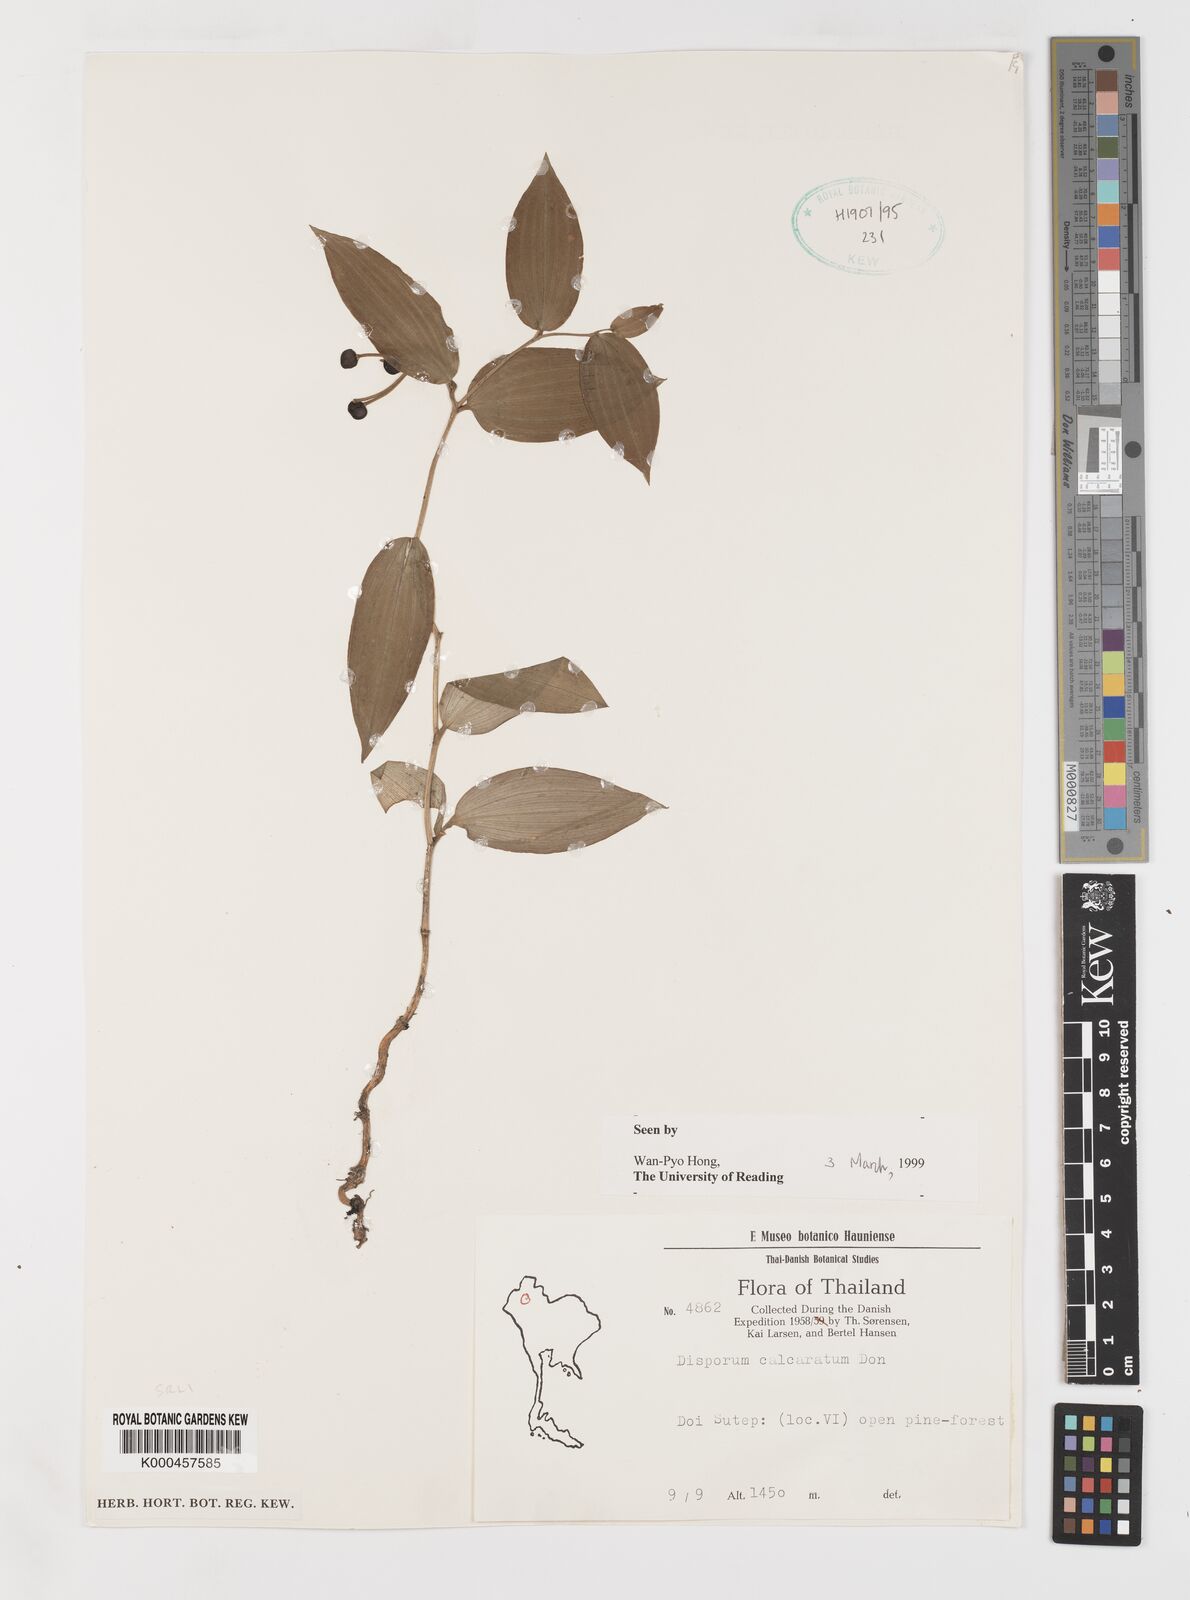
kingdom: Plantae
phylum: Tracheophyta
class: Liliopsida
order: Liliales
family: Colchicaceae
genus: Disporum
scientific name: Disporum calcaratum
